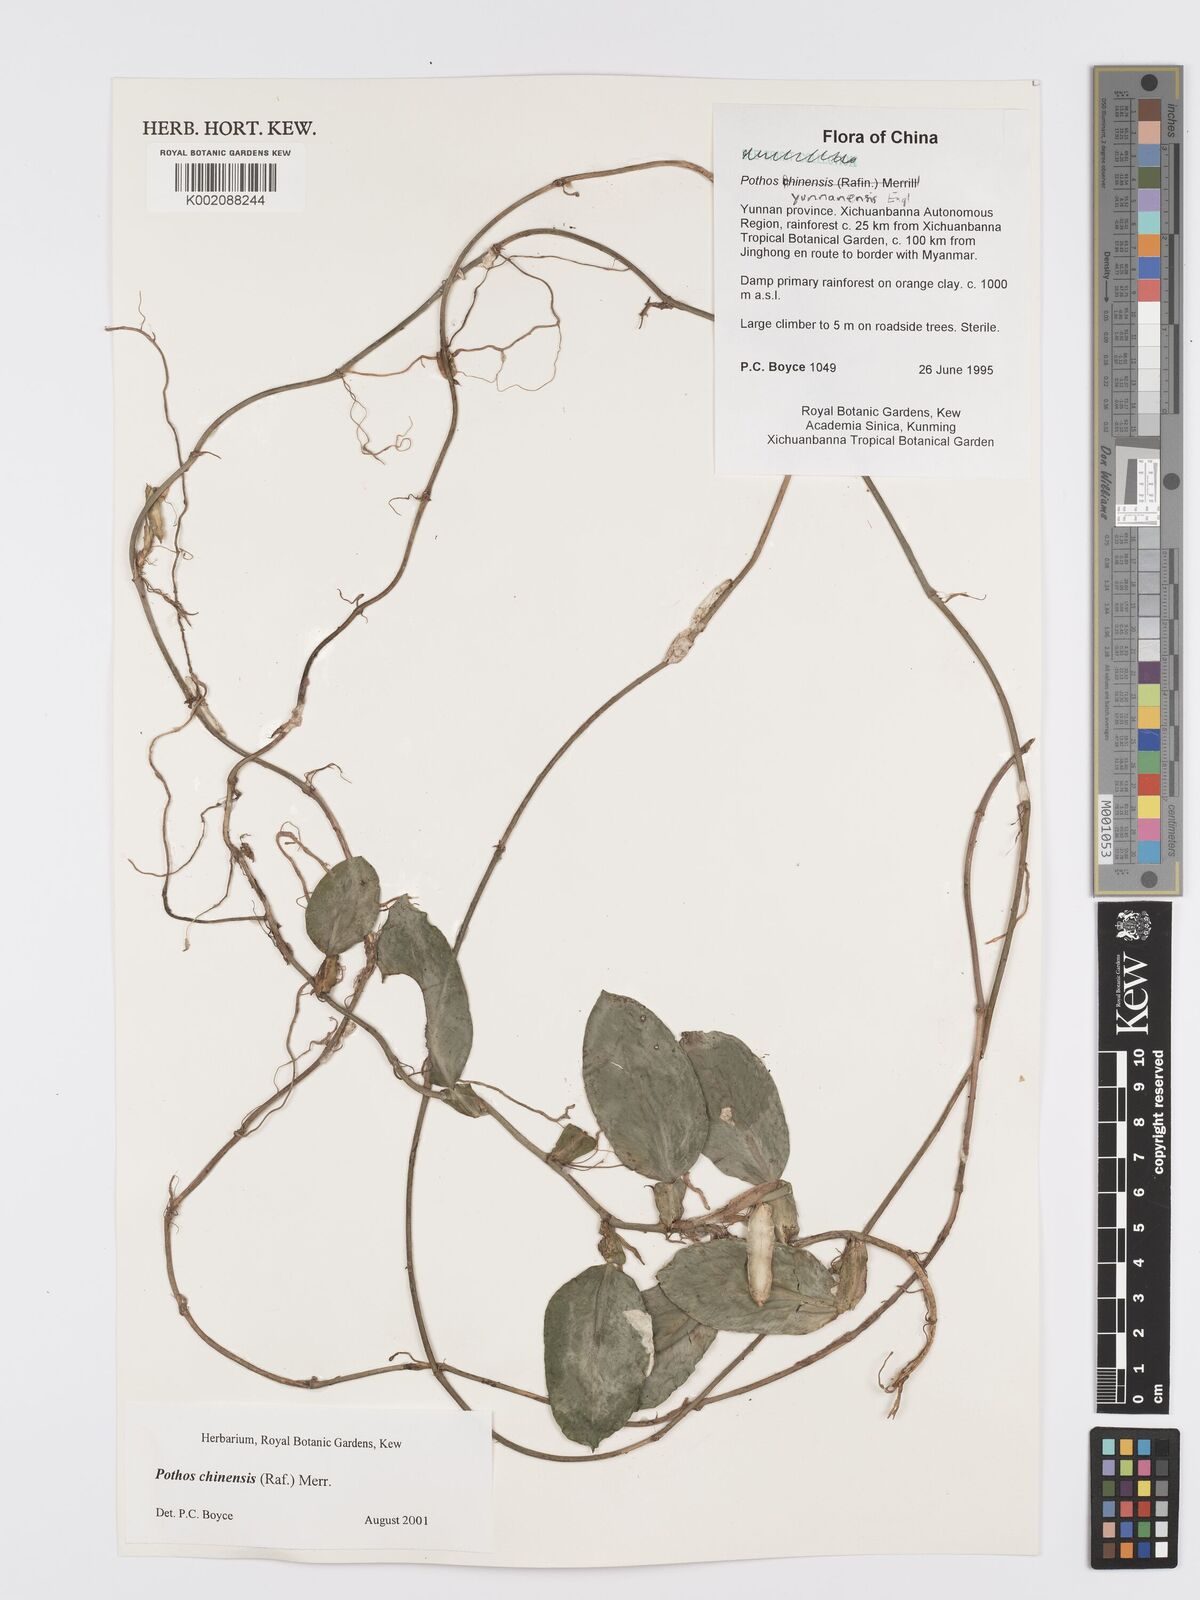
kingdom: Plantae
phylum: Tracheophyta
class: Liliopsida
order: Alismatales
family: Araceae
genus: Pothos
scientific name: Pothos chinensis
